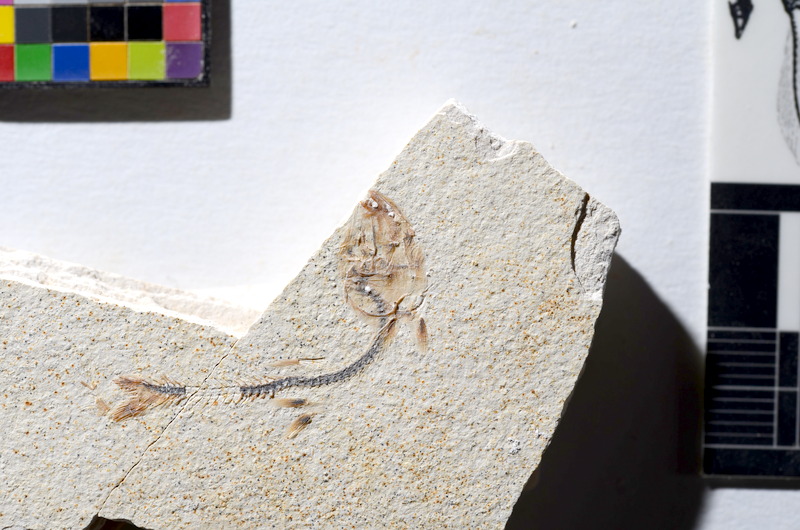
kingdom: Animalia
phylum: Chordata
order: Salmoniformes
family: Orthogonikleithridae
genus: Orthogonikleithrus
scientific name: Orthogonikleithrus hoelli
